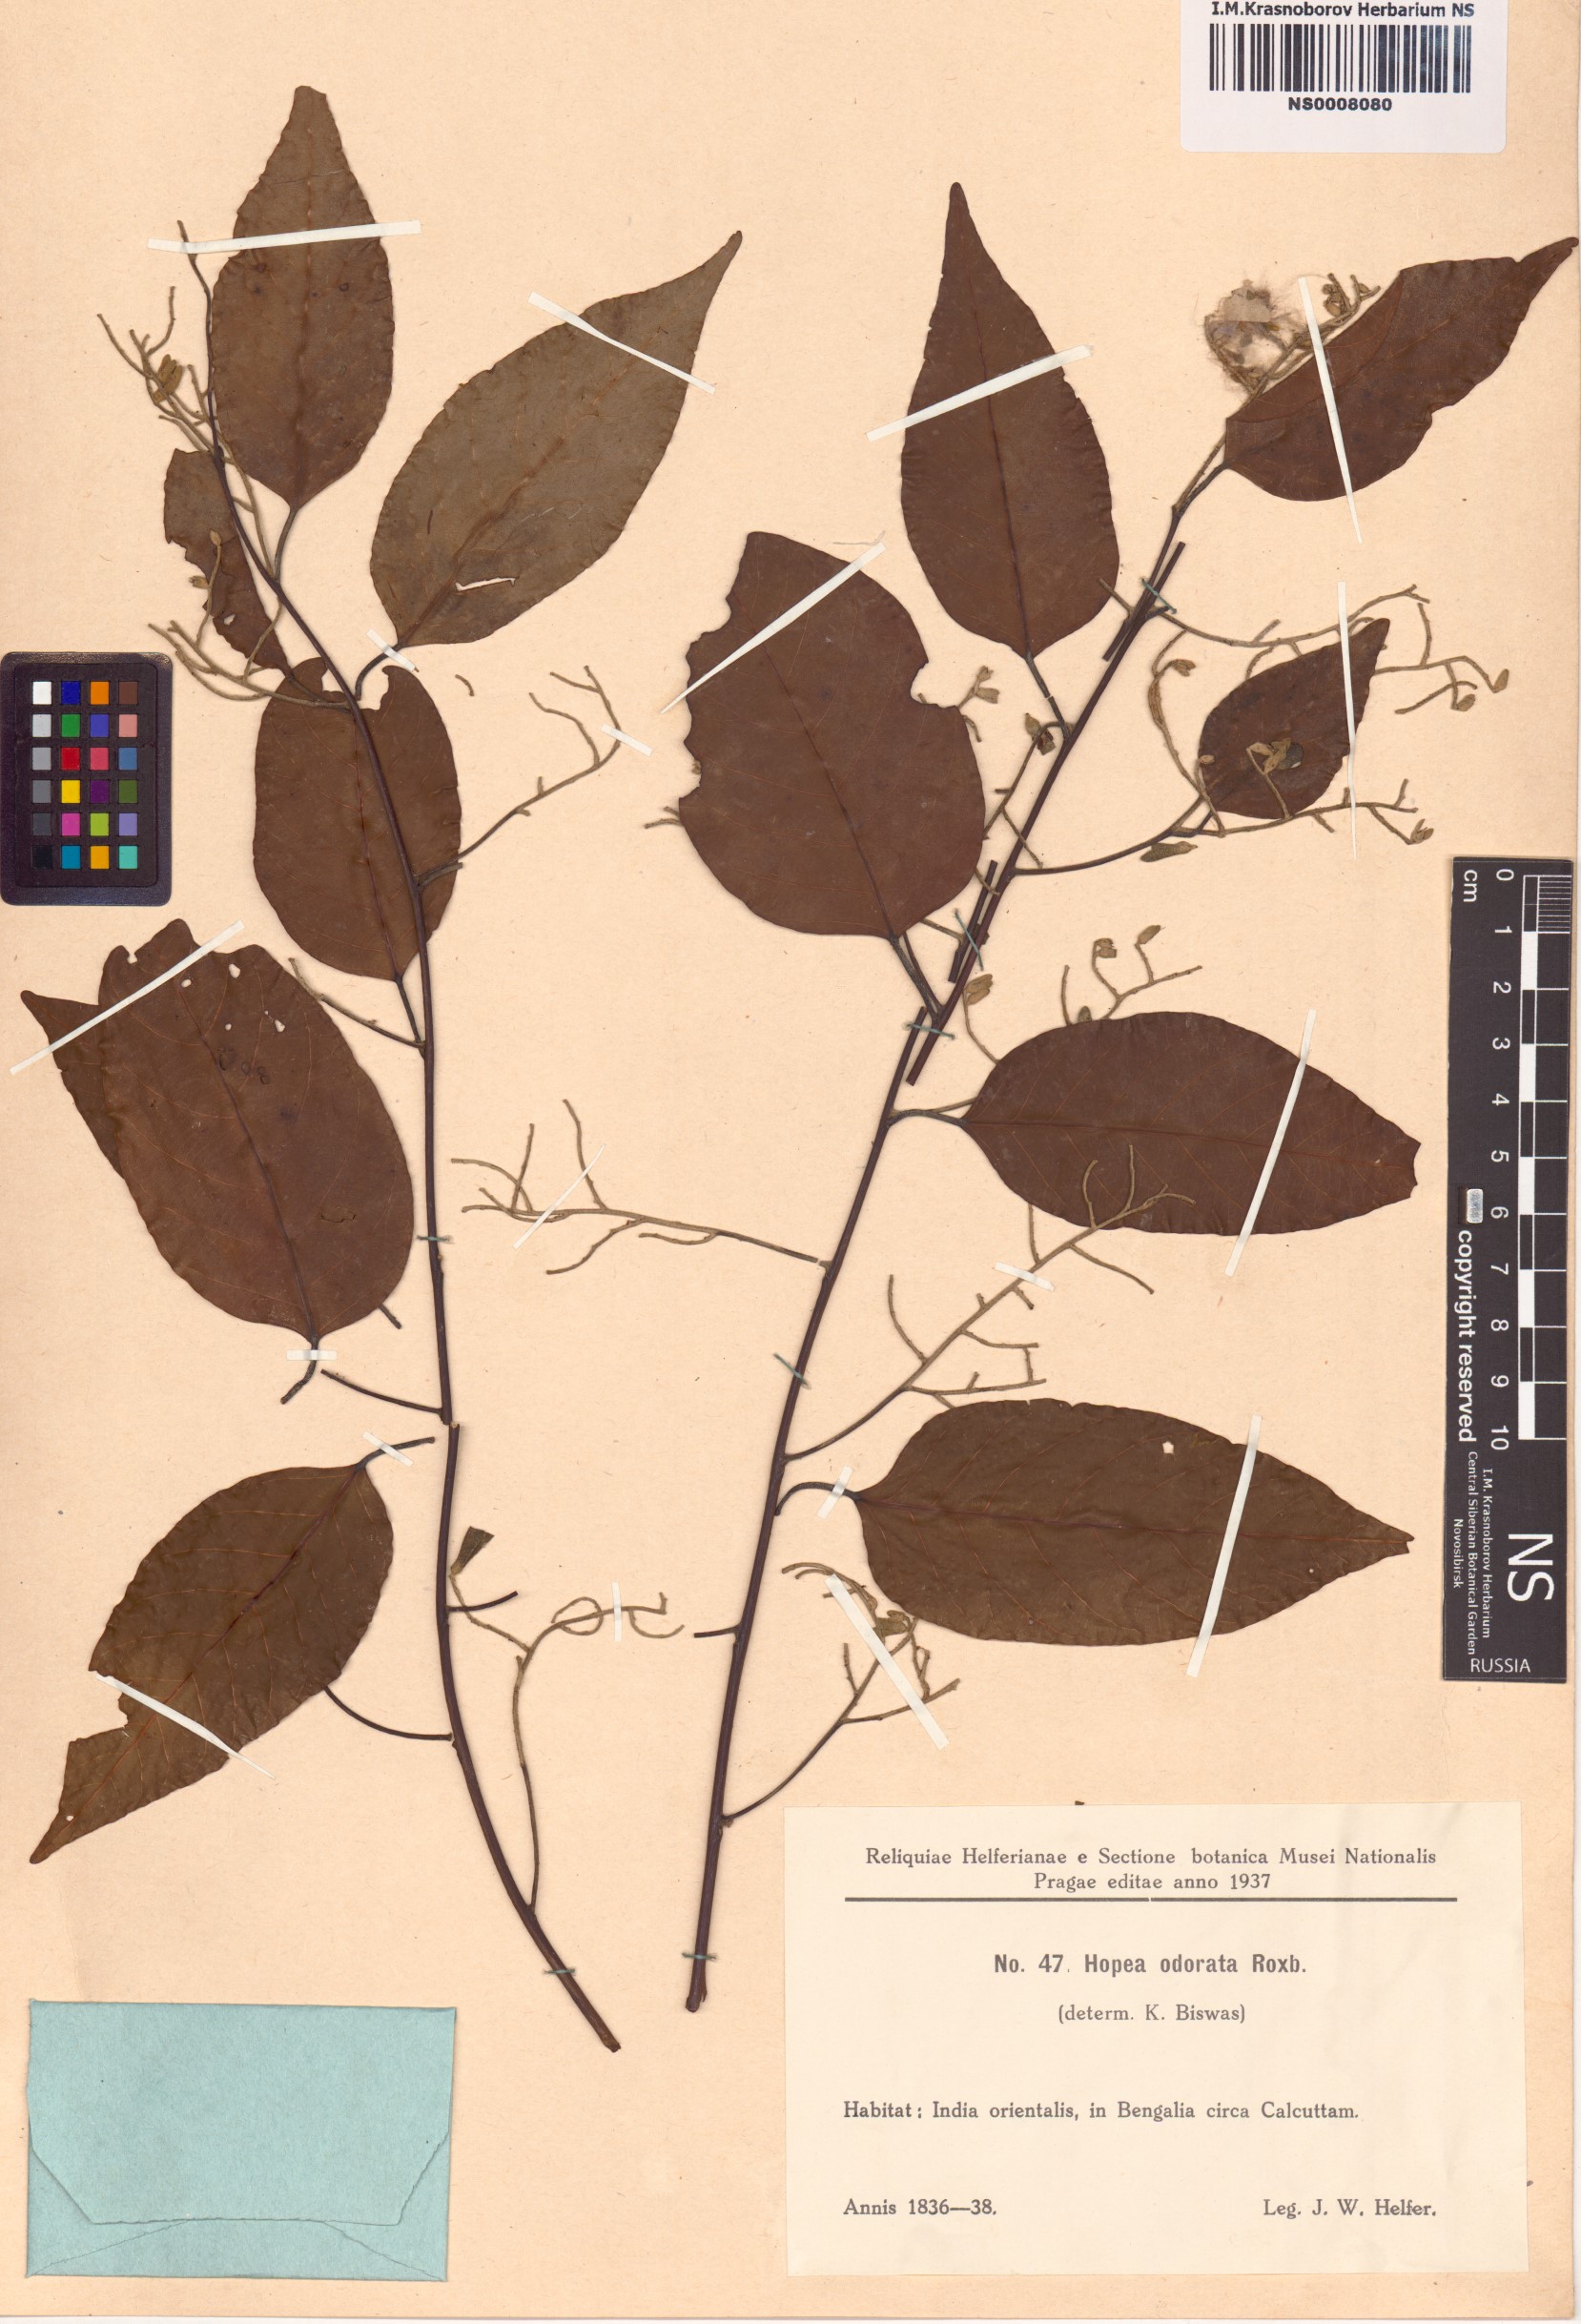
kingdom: Plantae
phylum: Tracheophyta
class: Magnoliopsida
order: Malvales
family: Dipterocarpaceae
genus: Hopea
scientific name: Hopea odorata
